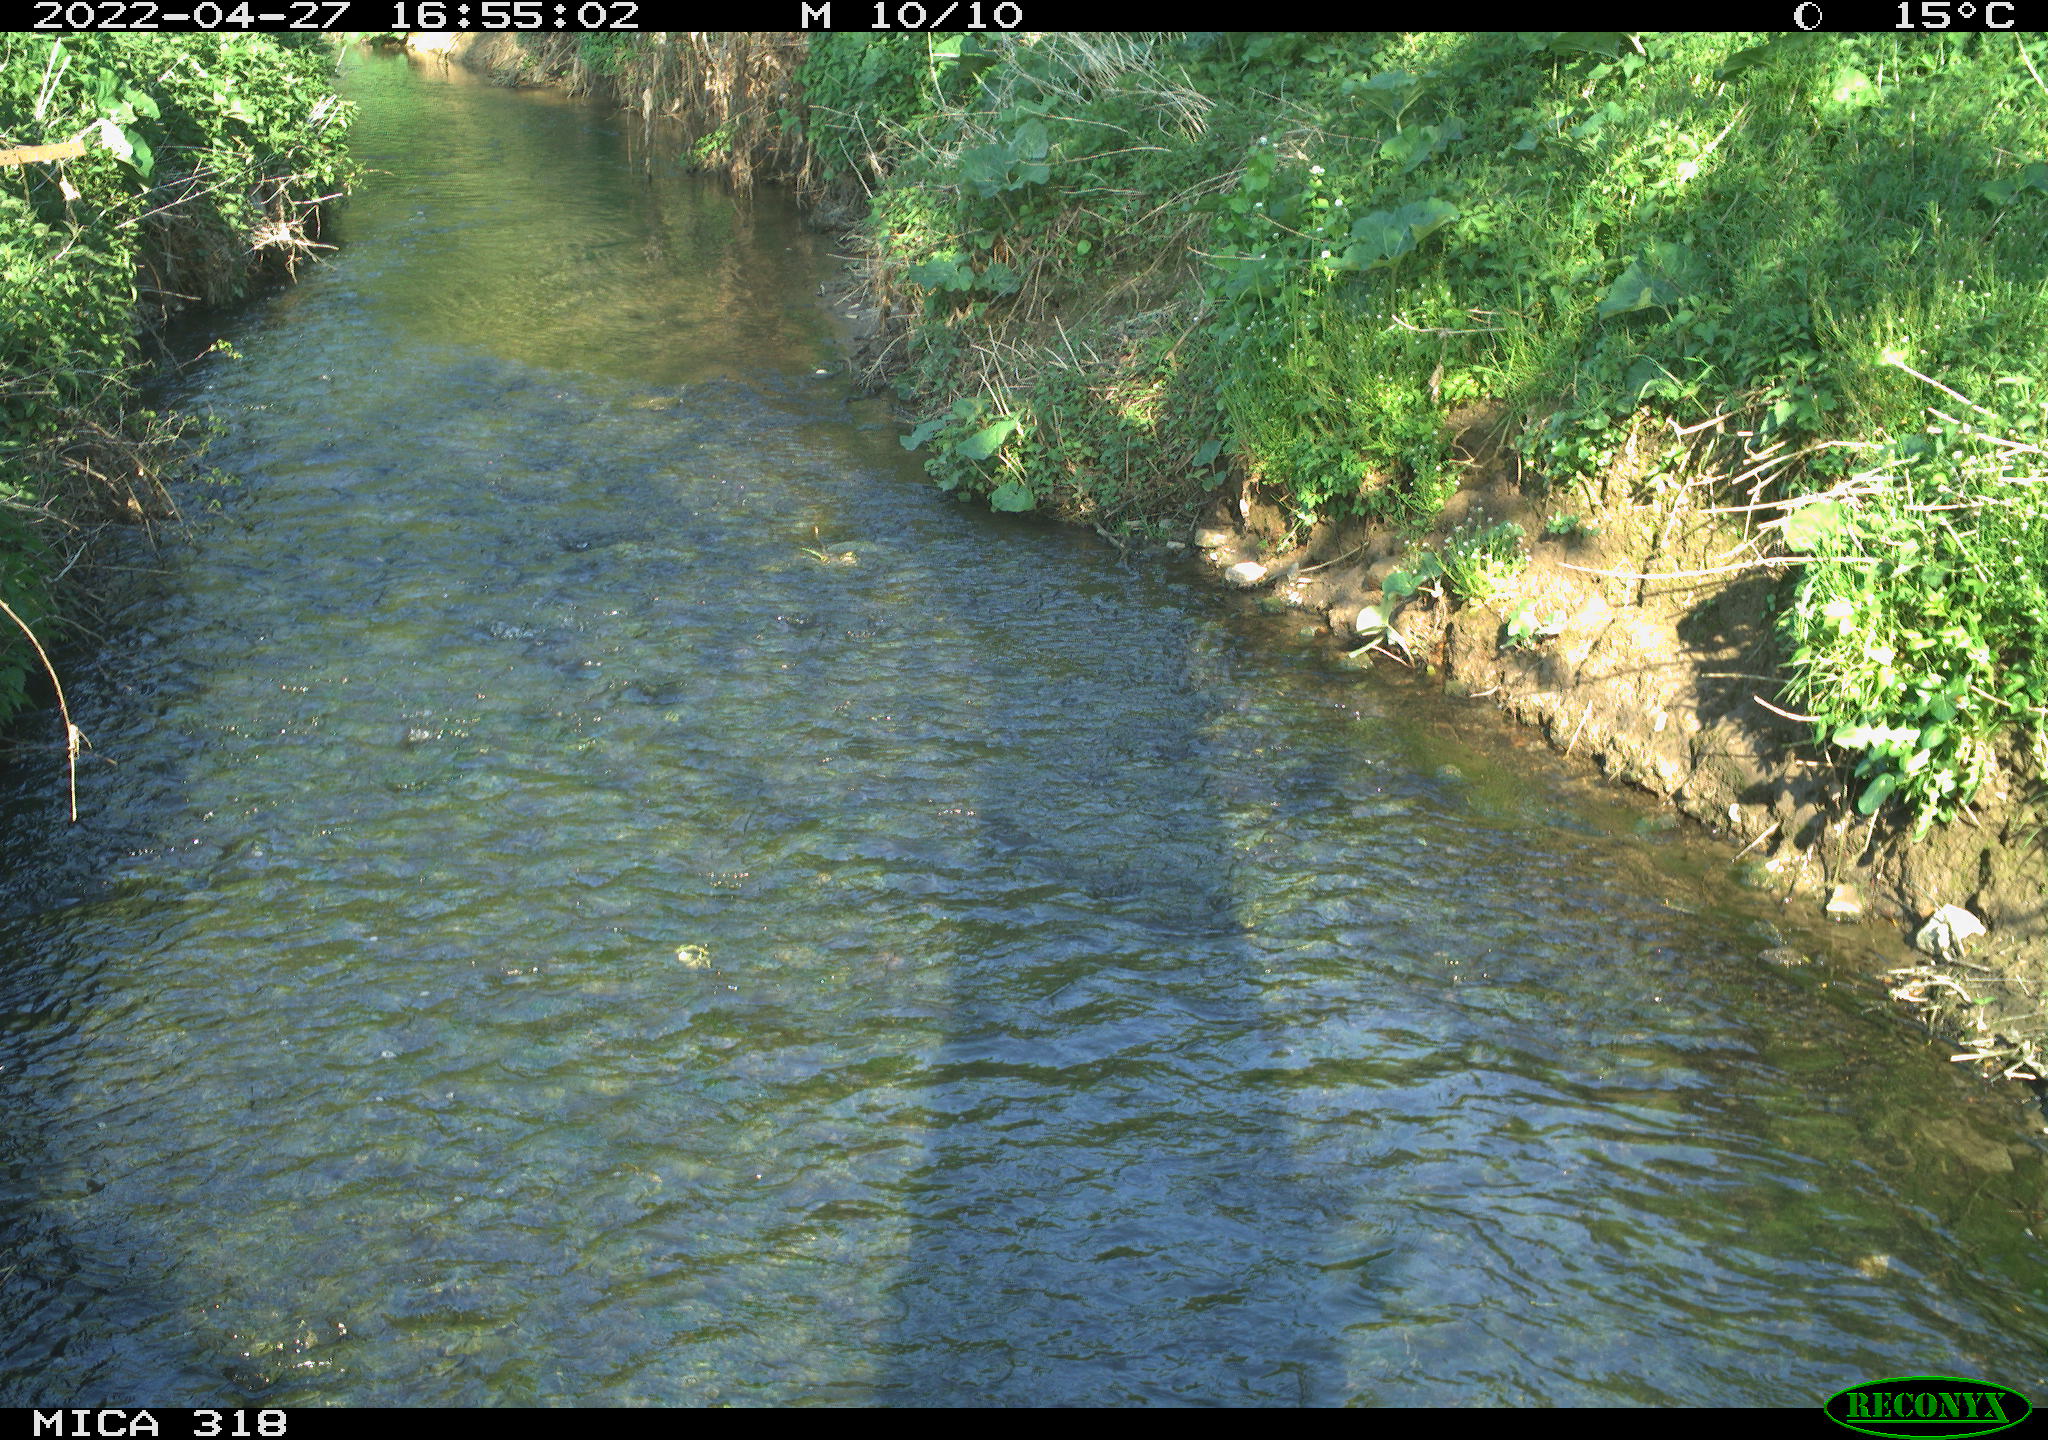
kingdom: Animalia
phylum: Chordata
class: Aves
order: Passeriformes
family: Corvidae
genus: Corvus
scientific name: Corvus corone
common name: Carrion crow
